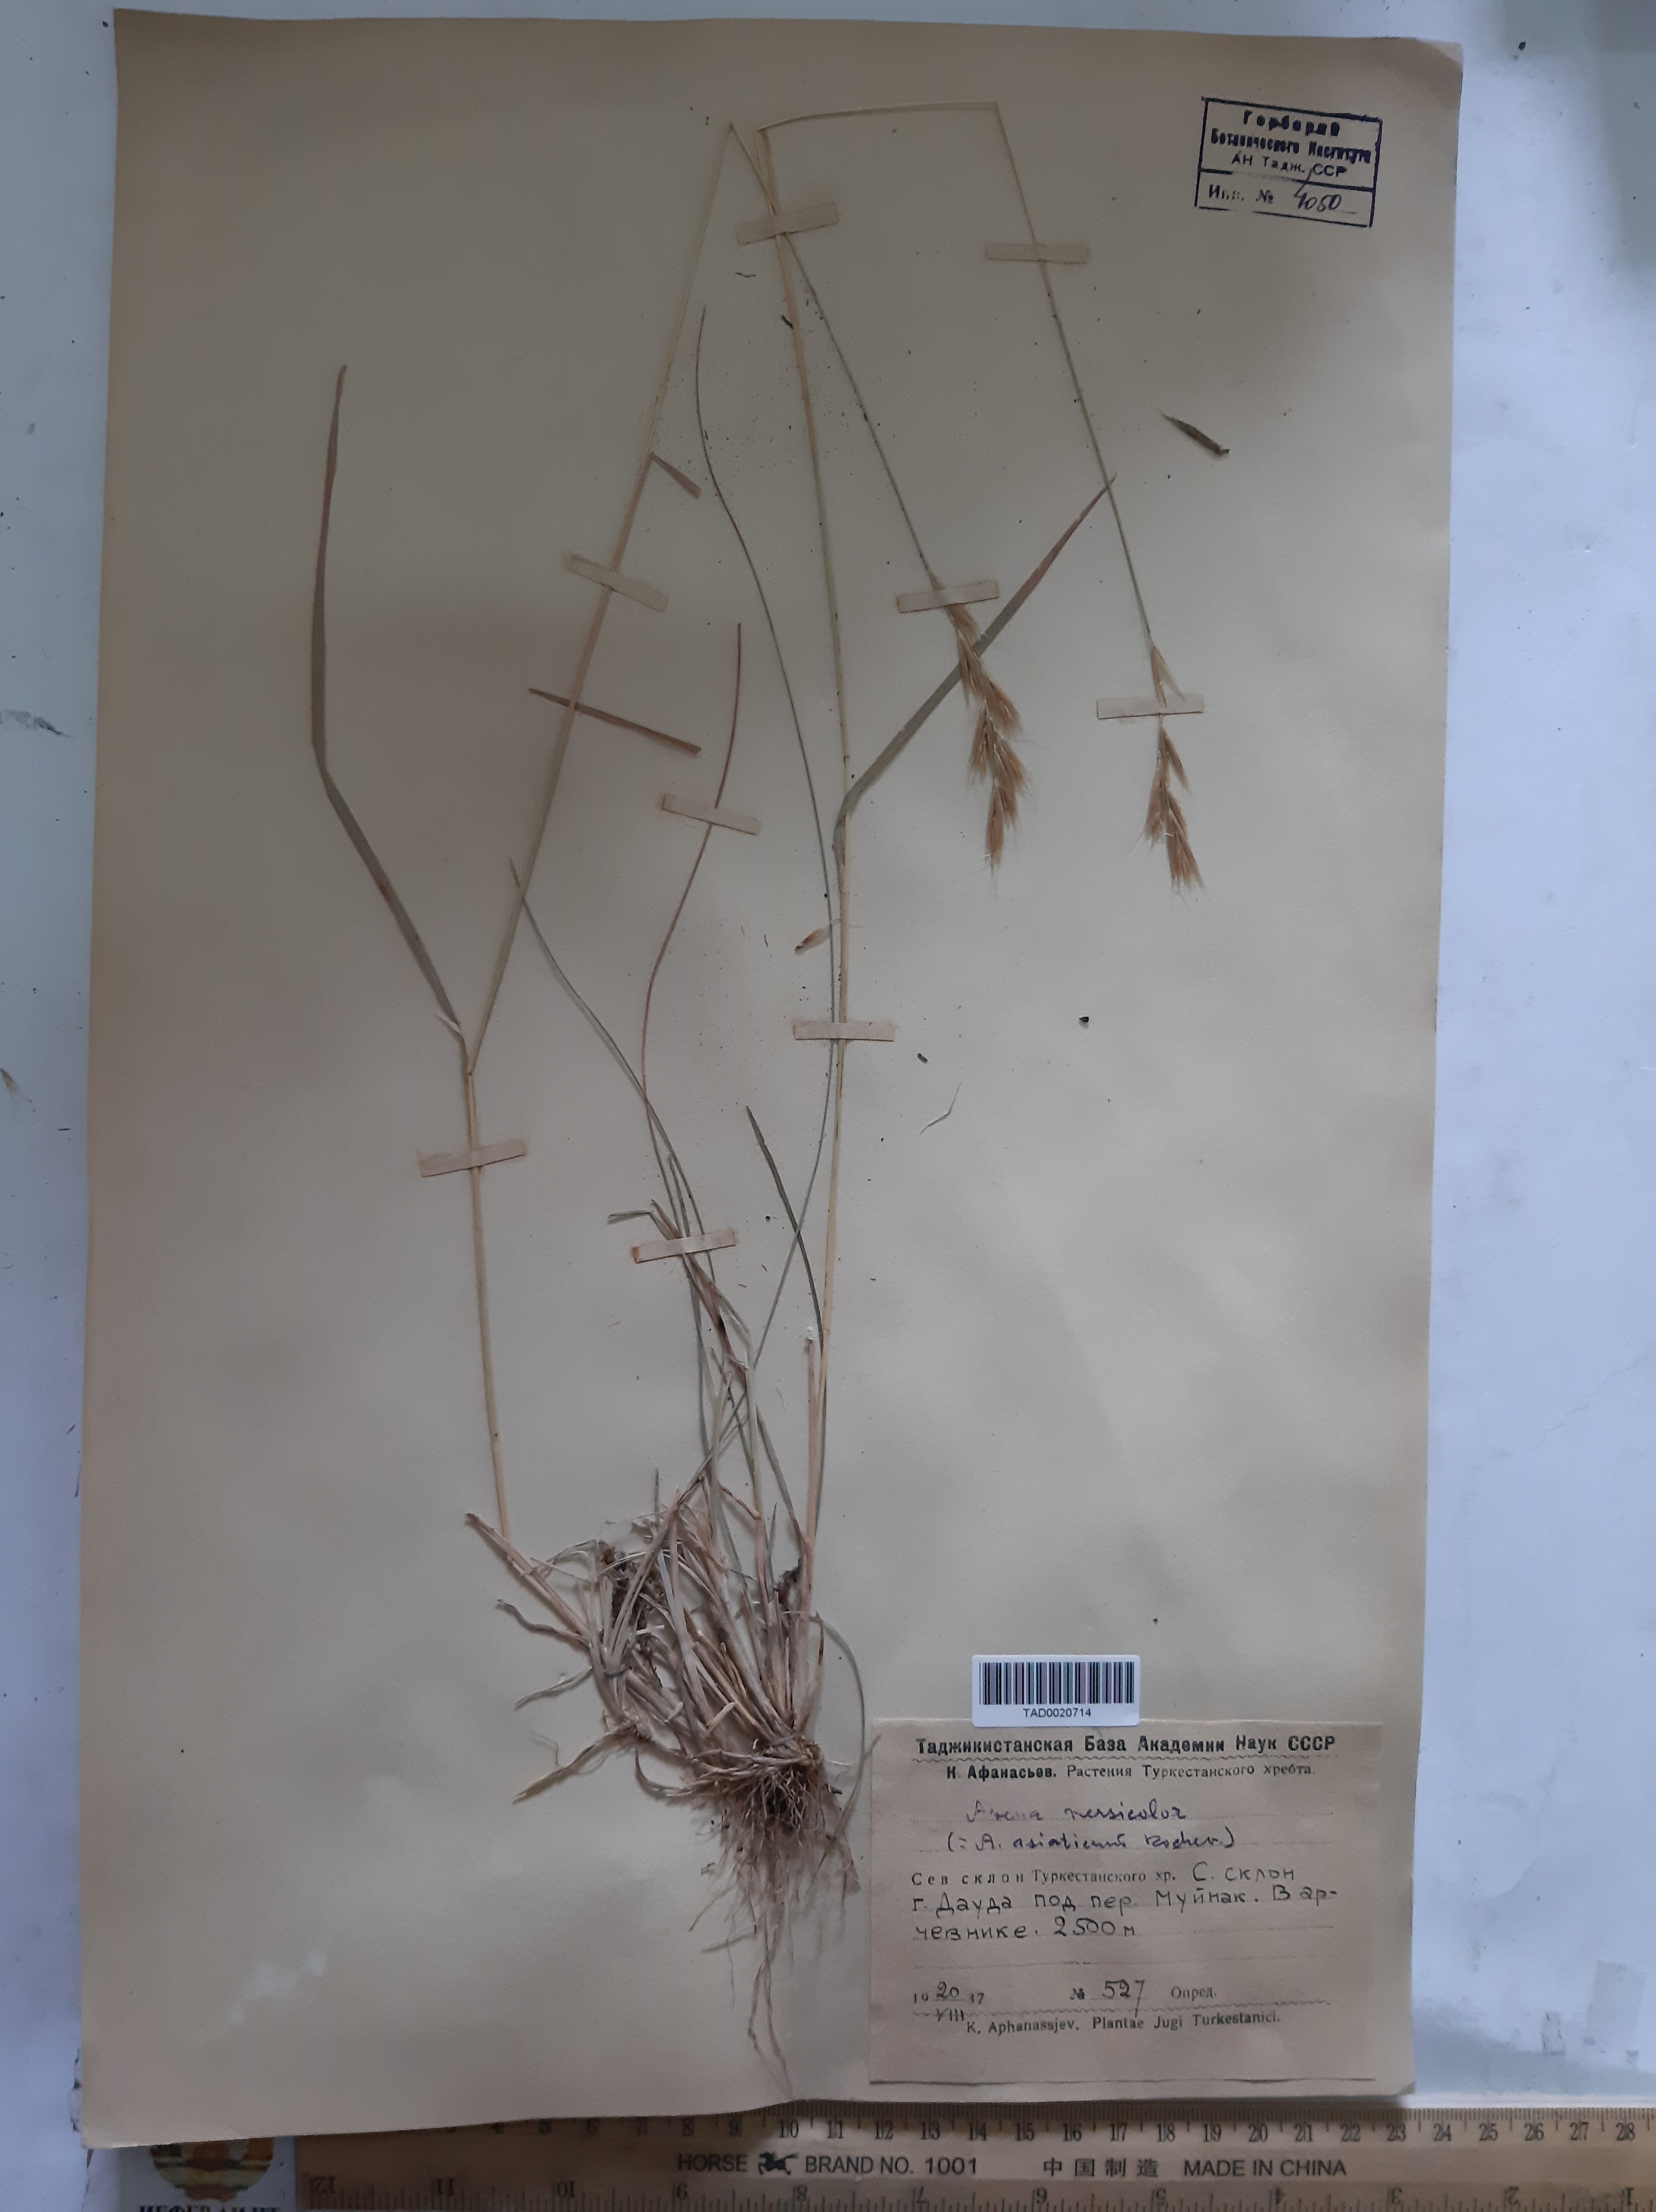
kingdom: Plantae
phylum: Tracheophyta
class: Liliopsida
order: Poales
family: Poaceae
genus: Avena
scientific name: Avena
